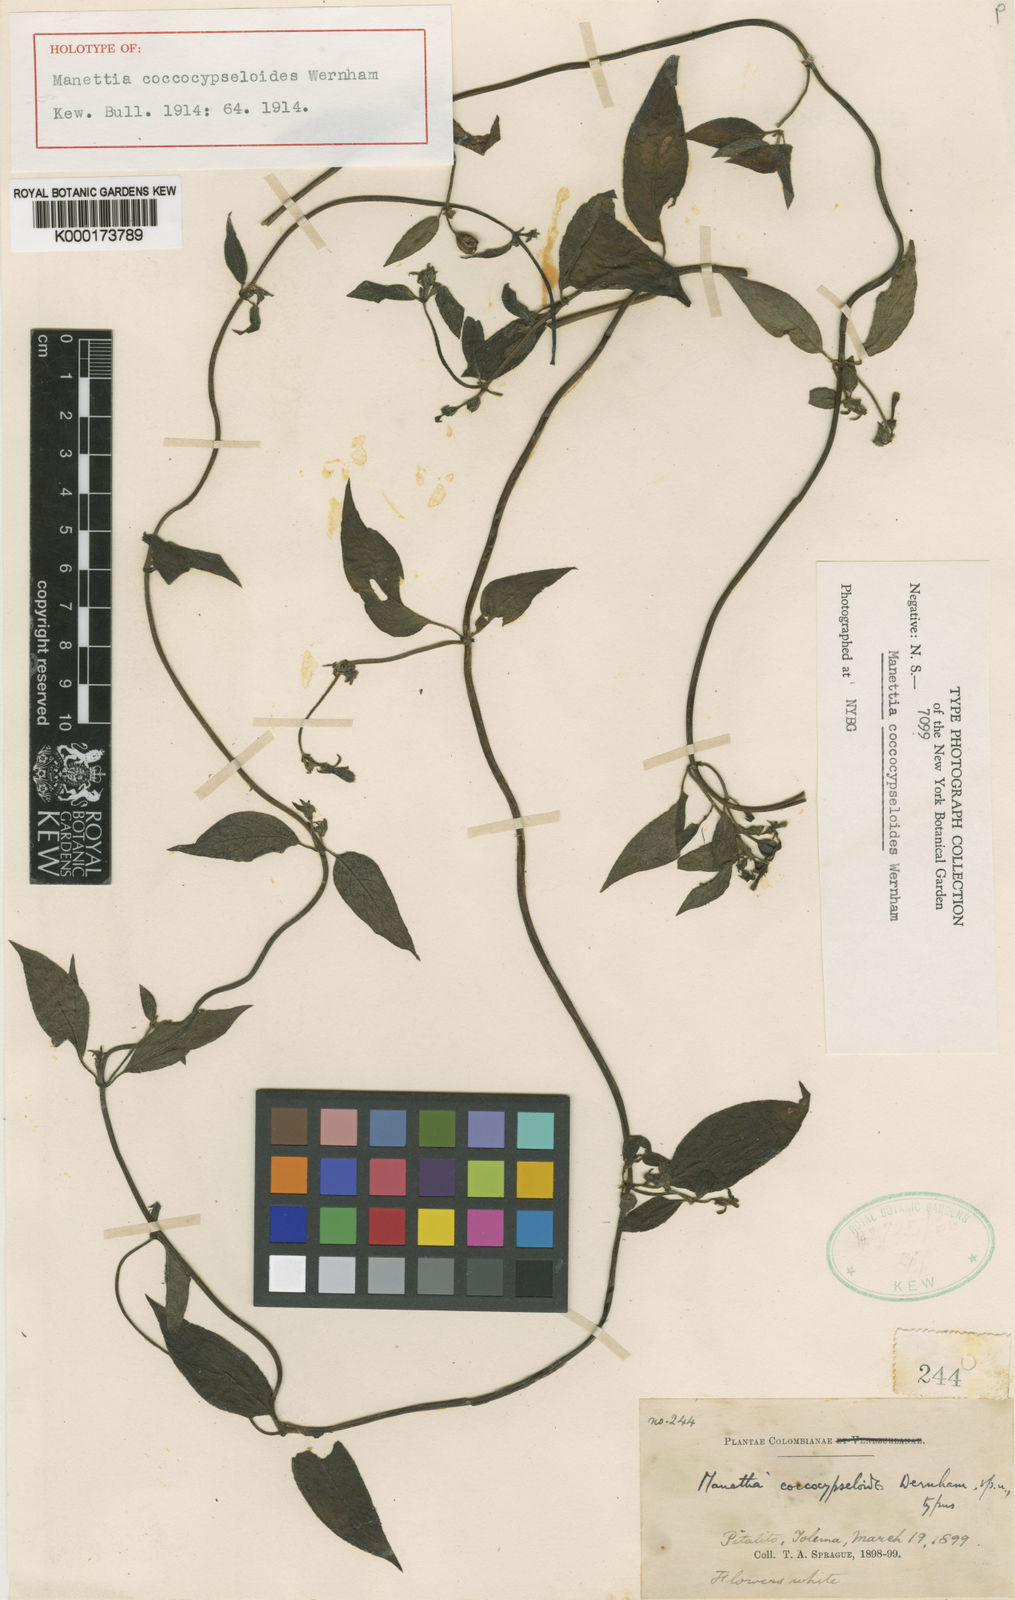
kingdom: Plantae
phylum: Tracheophyta
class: Magnoliopsida
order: Gentianales
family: Rubiaceae
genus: Manettia
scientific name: Manettia coccocypseloides
